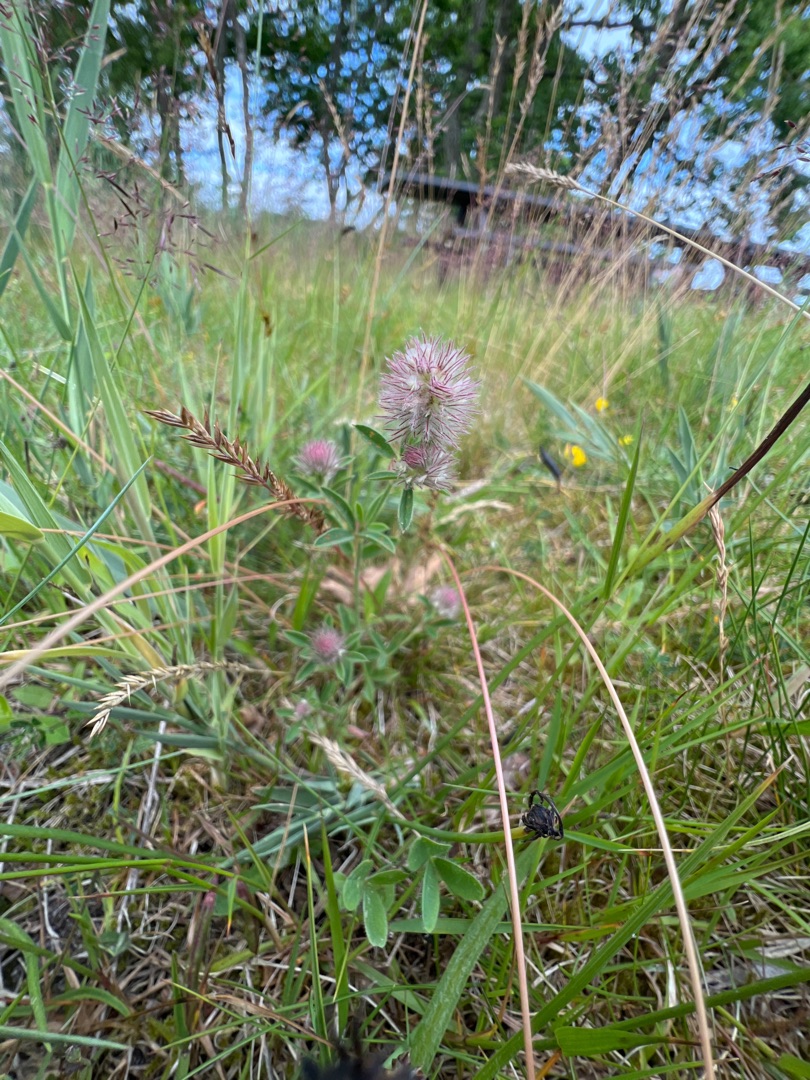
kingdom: Plantae
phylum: Tracheophyta
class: Magnoliopsida
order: Fabales
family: Fabaceae
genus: Trifolium
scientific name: Trifolium arvense
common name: Hare-kløver
